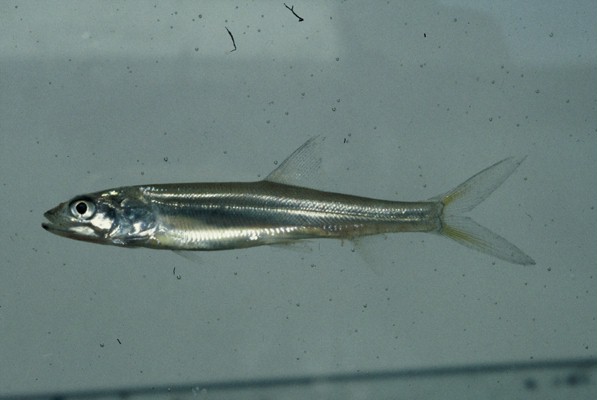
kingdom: Animalia
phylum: Chordata
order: Elopiformes
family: Elopidae
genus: Elops
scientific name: Elops machnata
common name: Ladyfish
